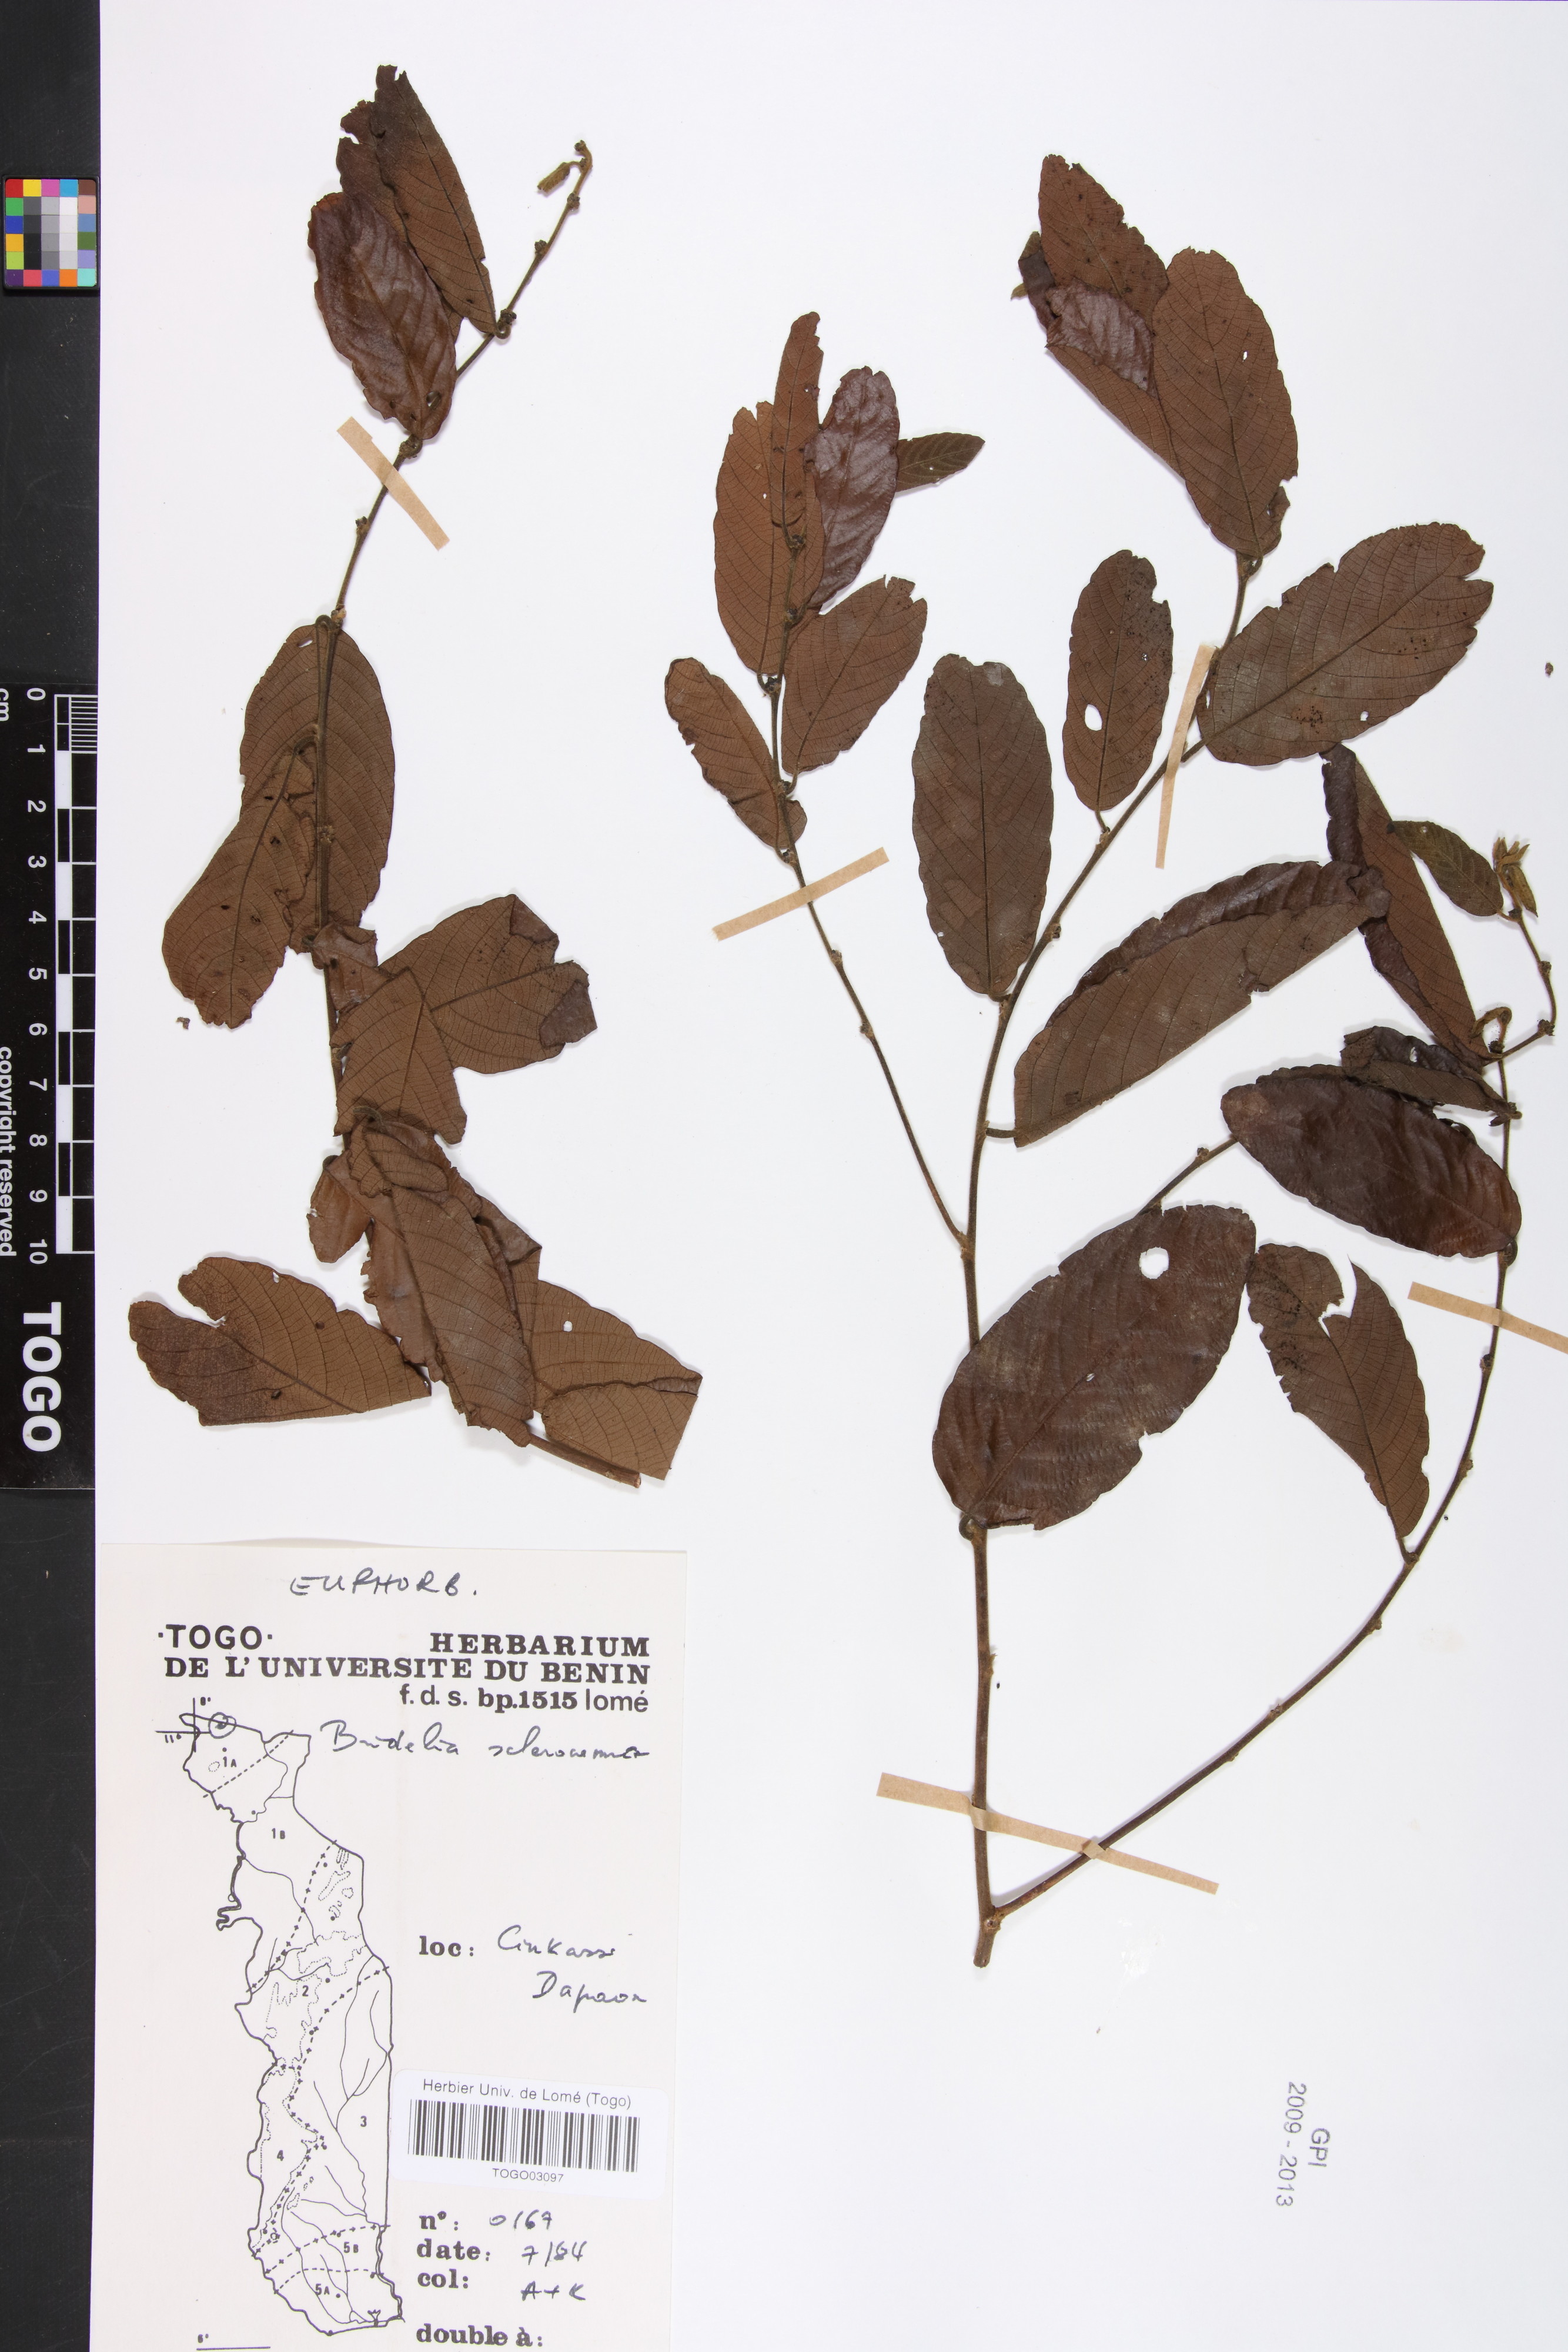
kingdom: Plantae
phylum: Tracheophyta
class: Magnoliopsida
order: Malpighiales
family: Phyllanthaceae
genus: Bridelia
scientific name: Bridelia scleroneura
